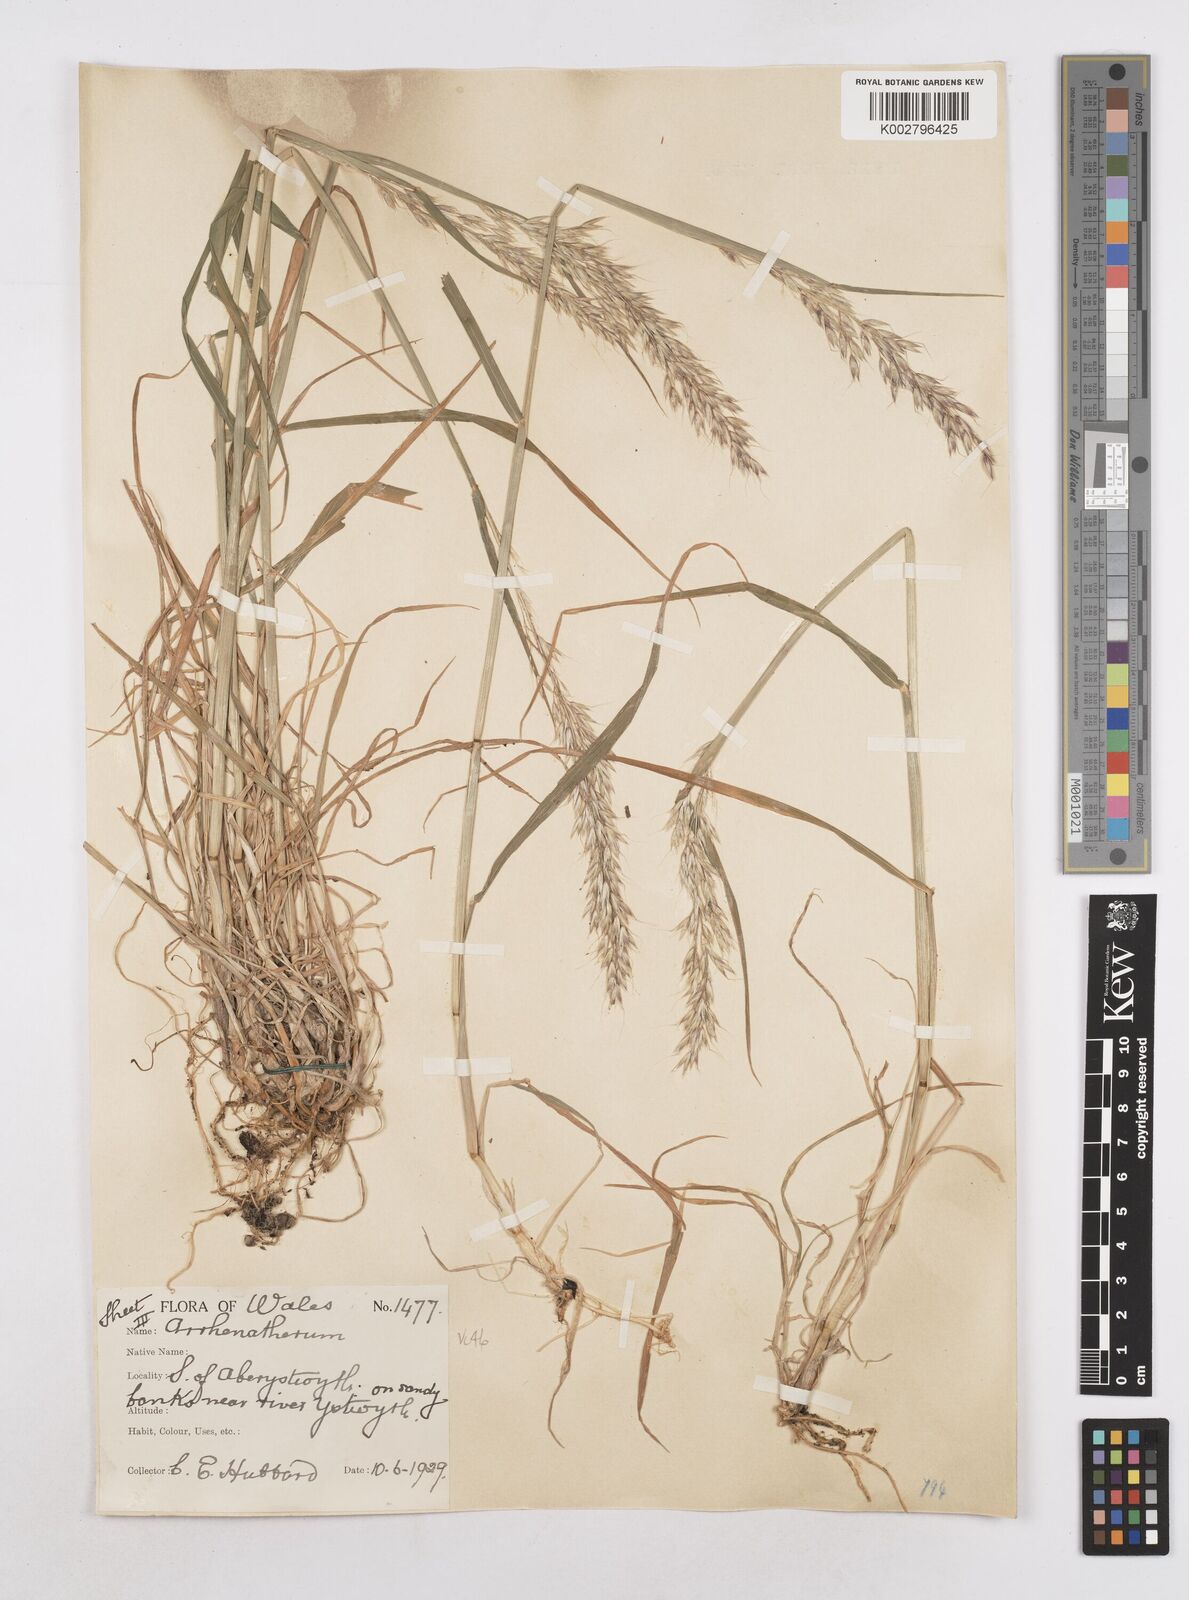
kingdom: Plantae
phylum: Tracheophyta
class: Liliopsida
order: Poales
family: Poaceae
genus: Arrhenatherum
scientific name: Arrhenatherum elatius
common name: Tall oatgrass
